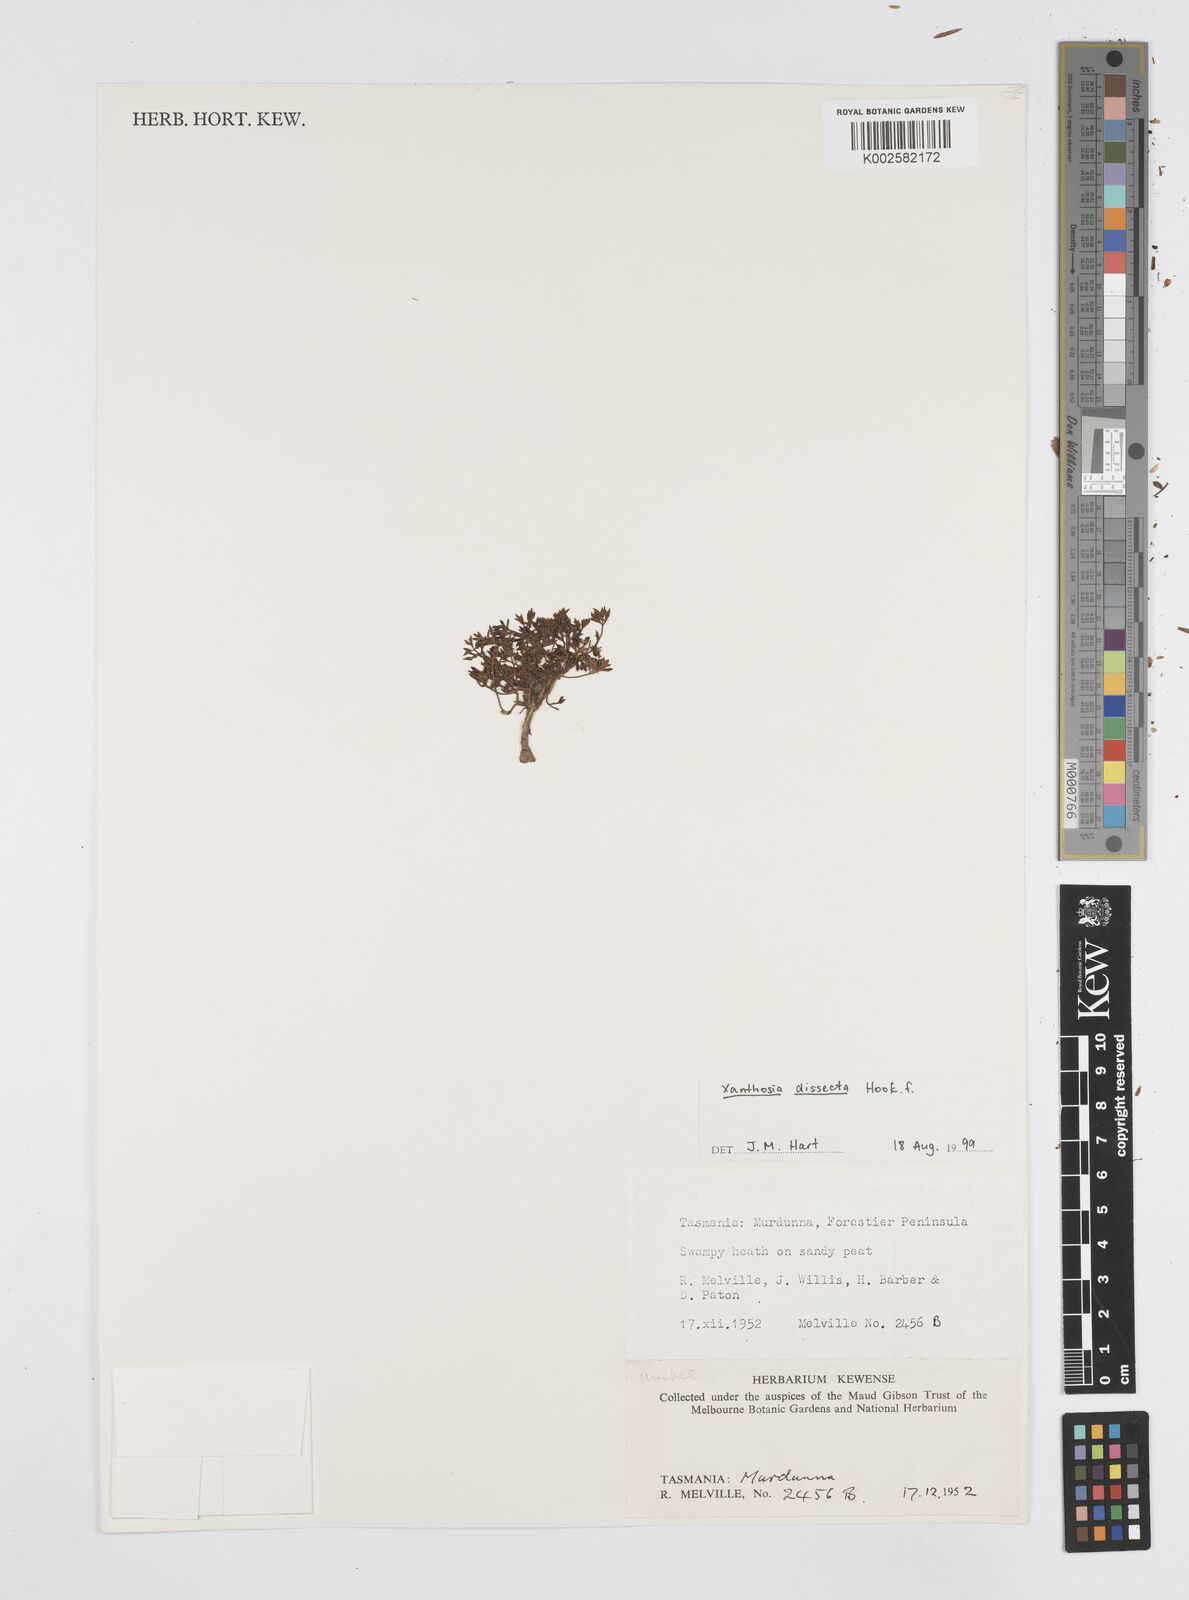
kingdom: Plantae
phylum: Tracheophyta
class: Magnoliopsida
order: Apiales
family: Apiaceae
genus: Xanthosia
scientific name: Xanthosia dissecta
